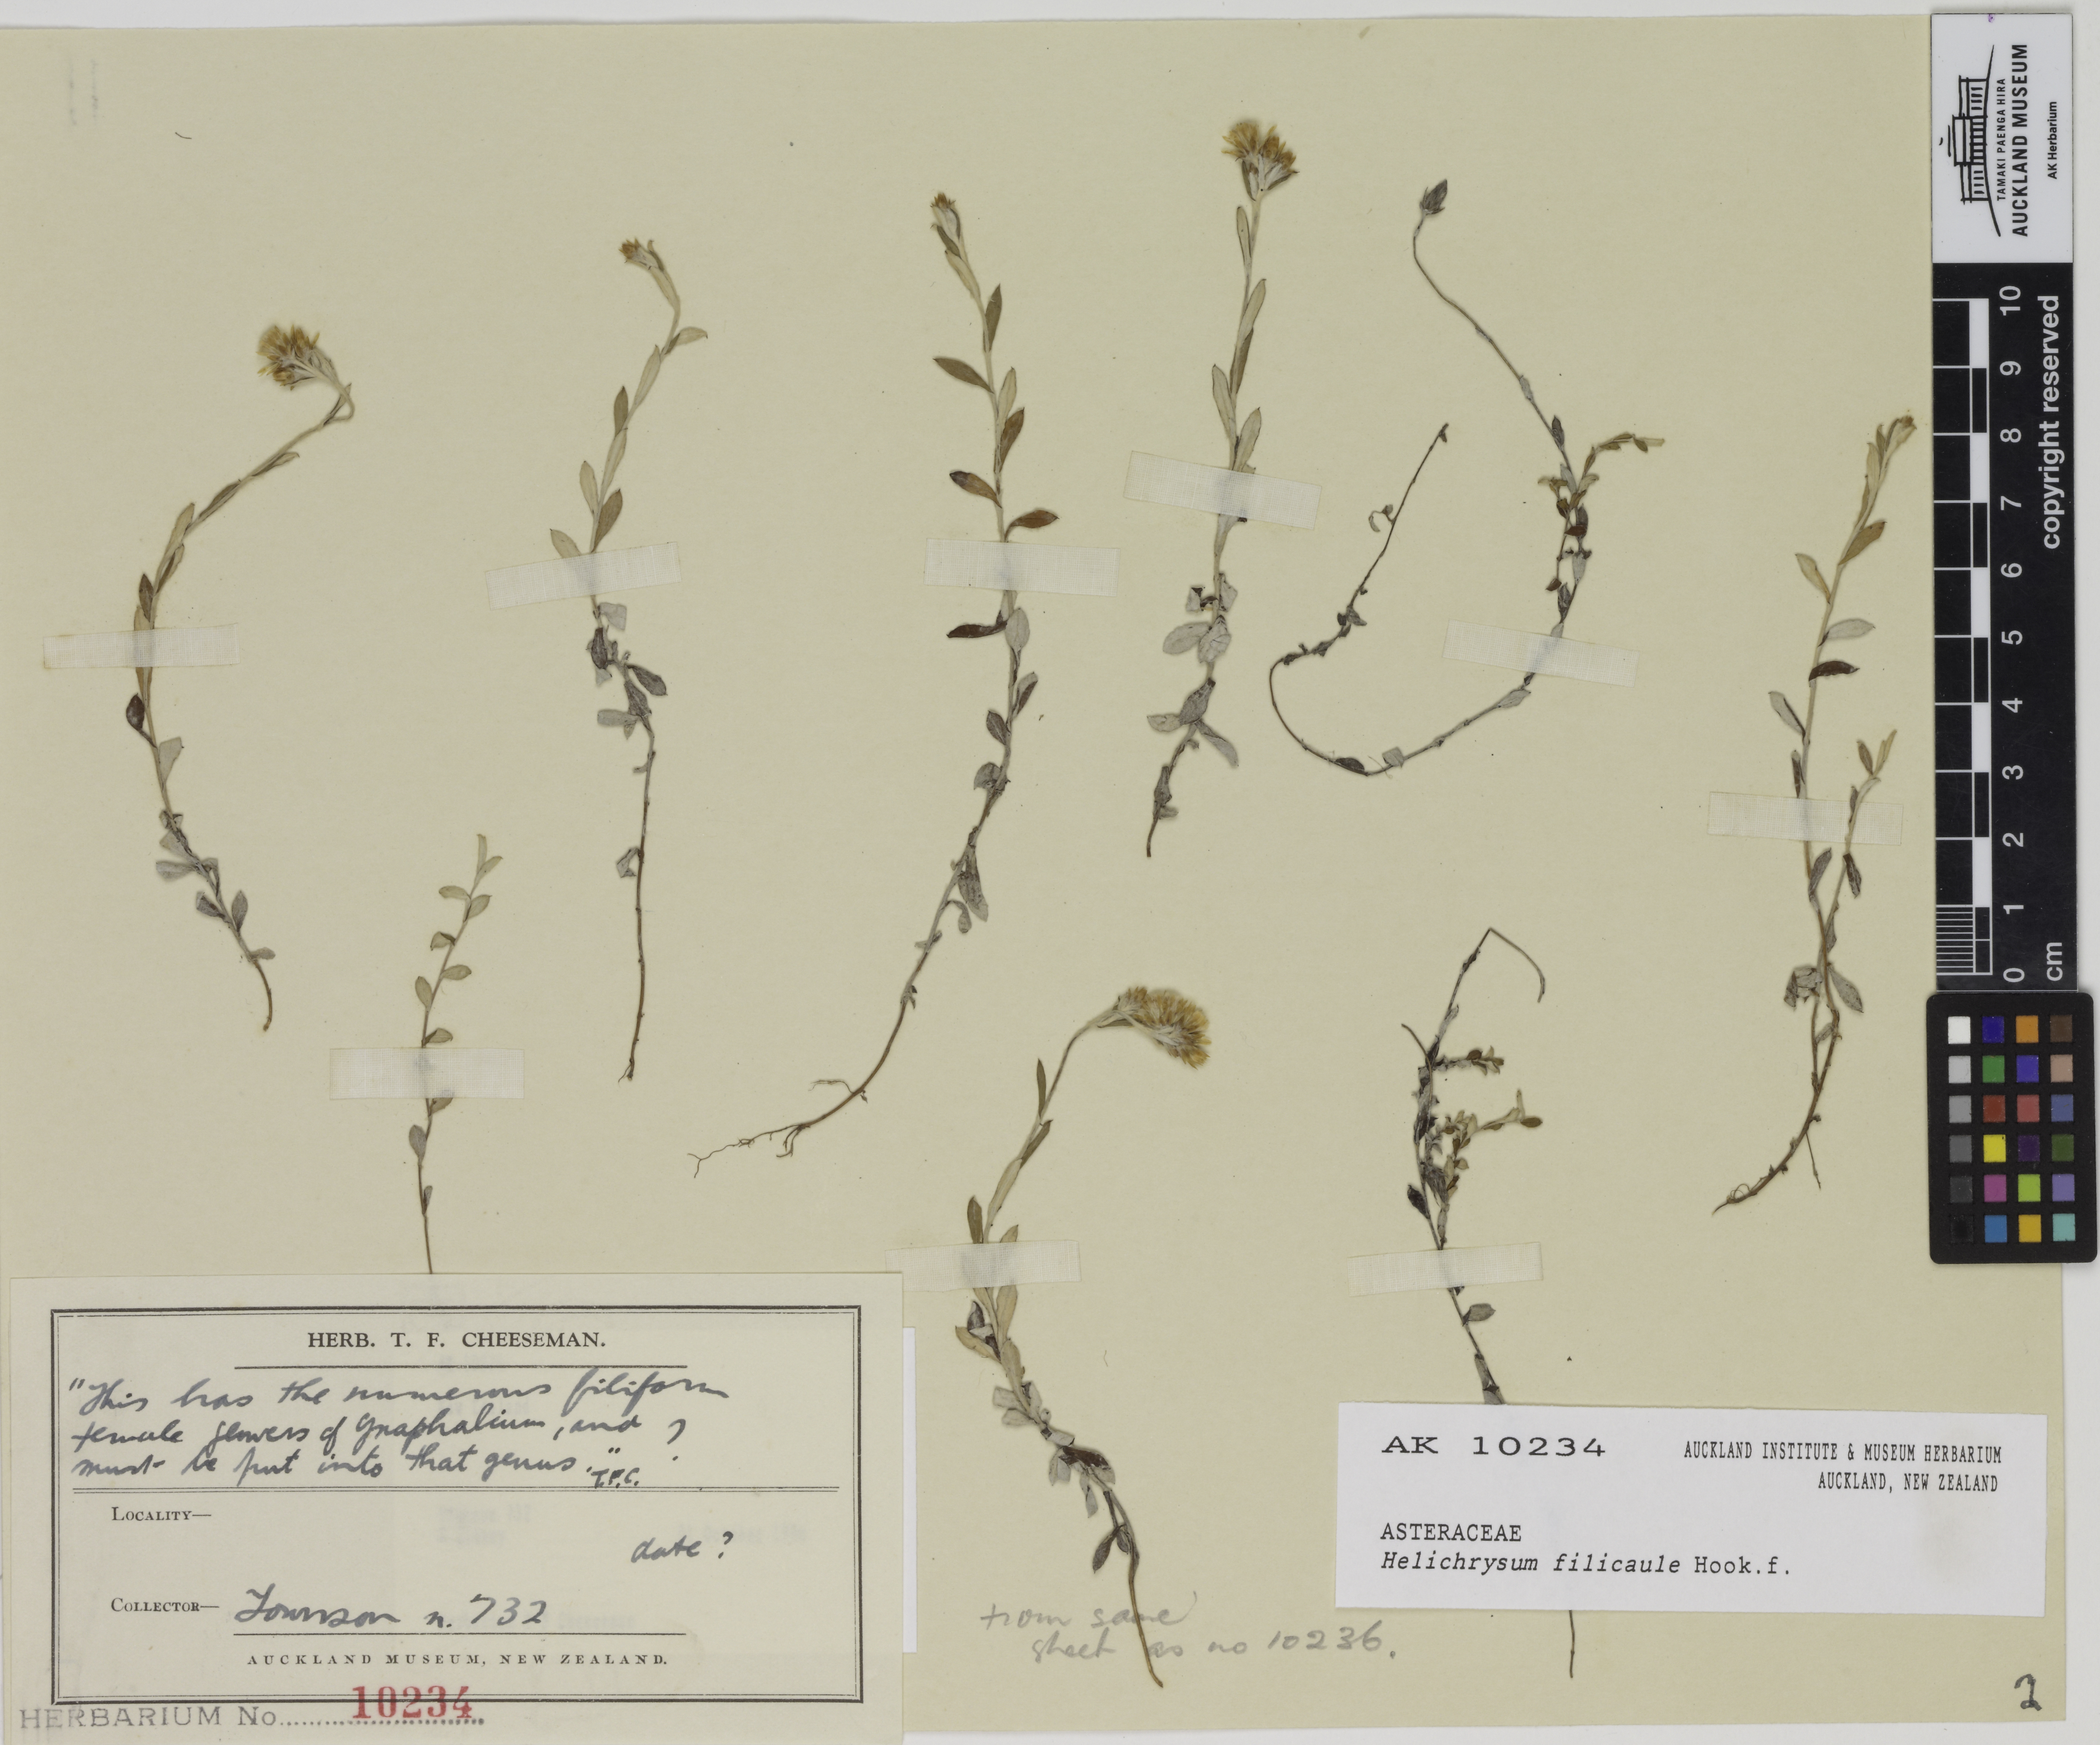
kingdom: Plantae
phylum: Tracheophyta
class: Magnoliopsida
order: Asterales
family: Asteraceae
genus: Helichrysum
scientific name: Helichrysum filicaule
